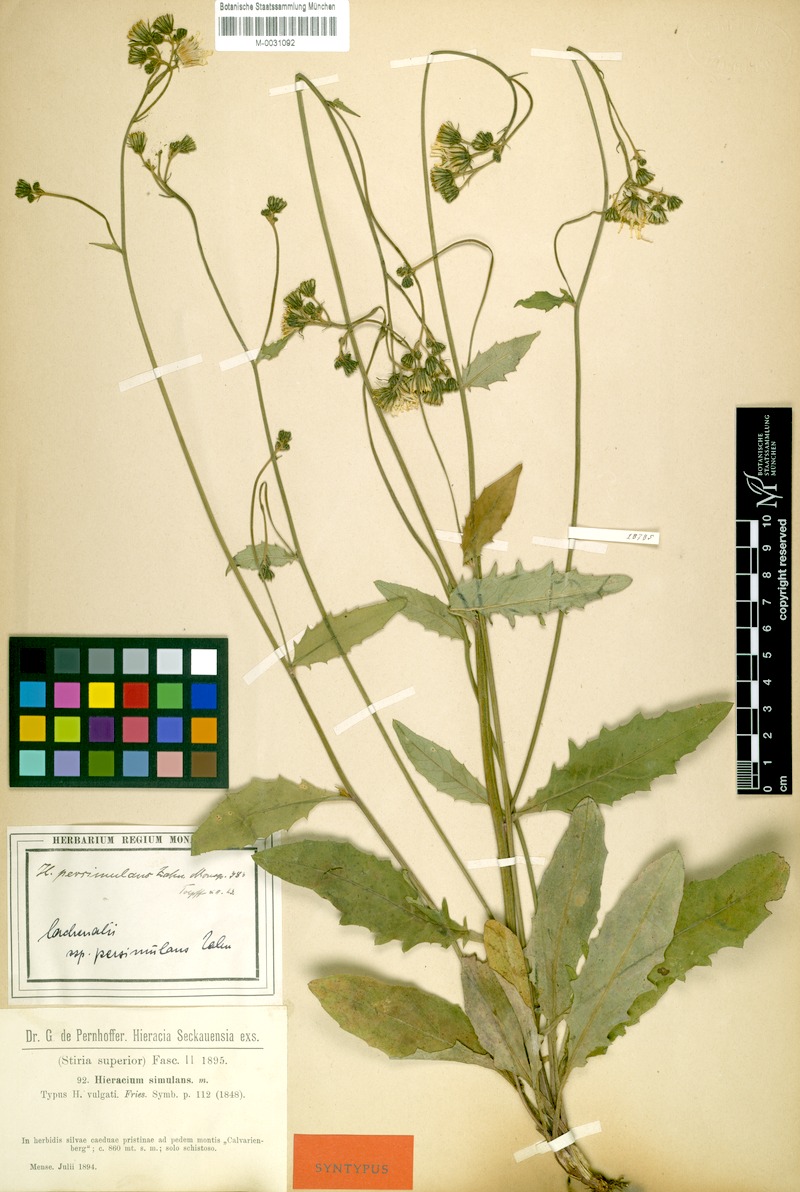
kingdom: Plantae
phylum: Tracheophyta
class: Magnoliopsida
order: Asterales
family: Asteraceae
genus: Hieracium
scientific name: Hieracium lachenalii
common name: Common hawkweed
